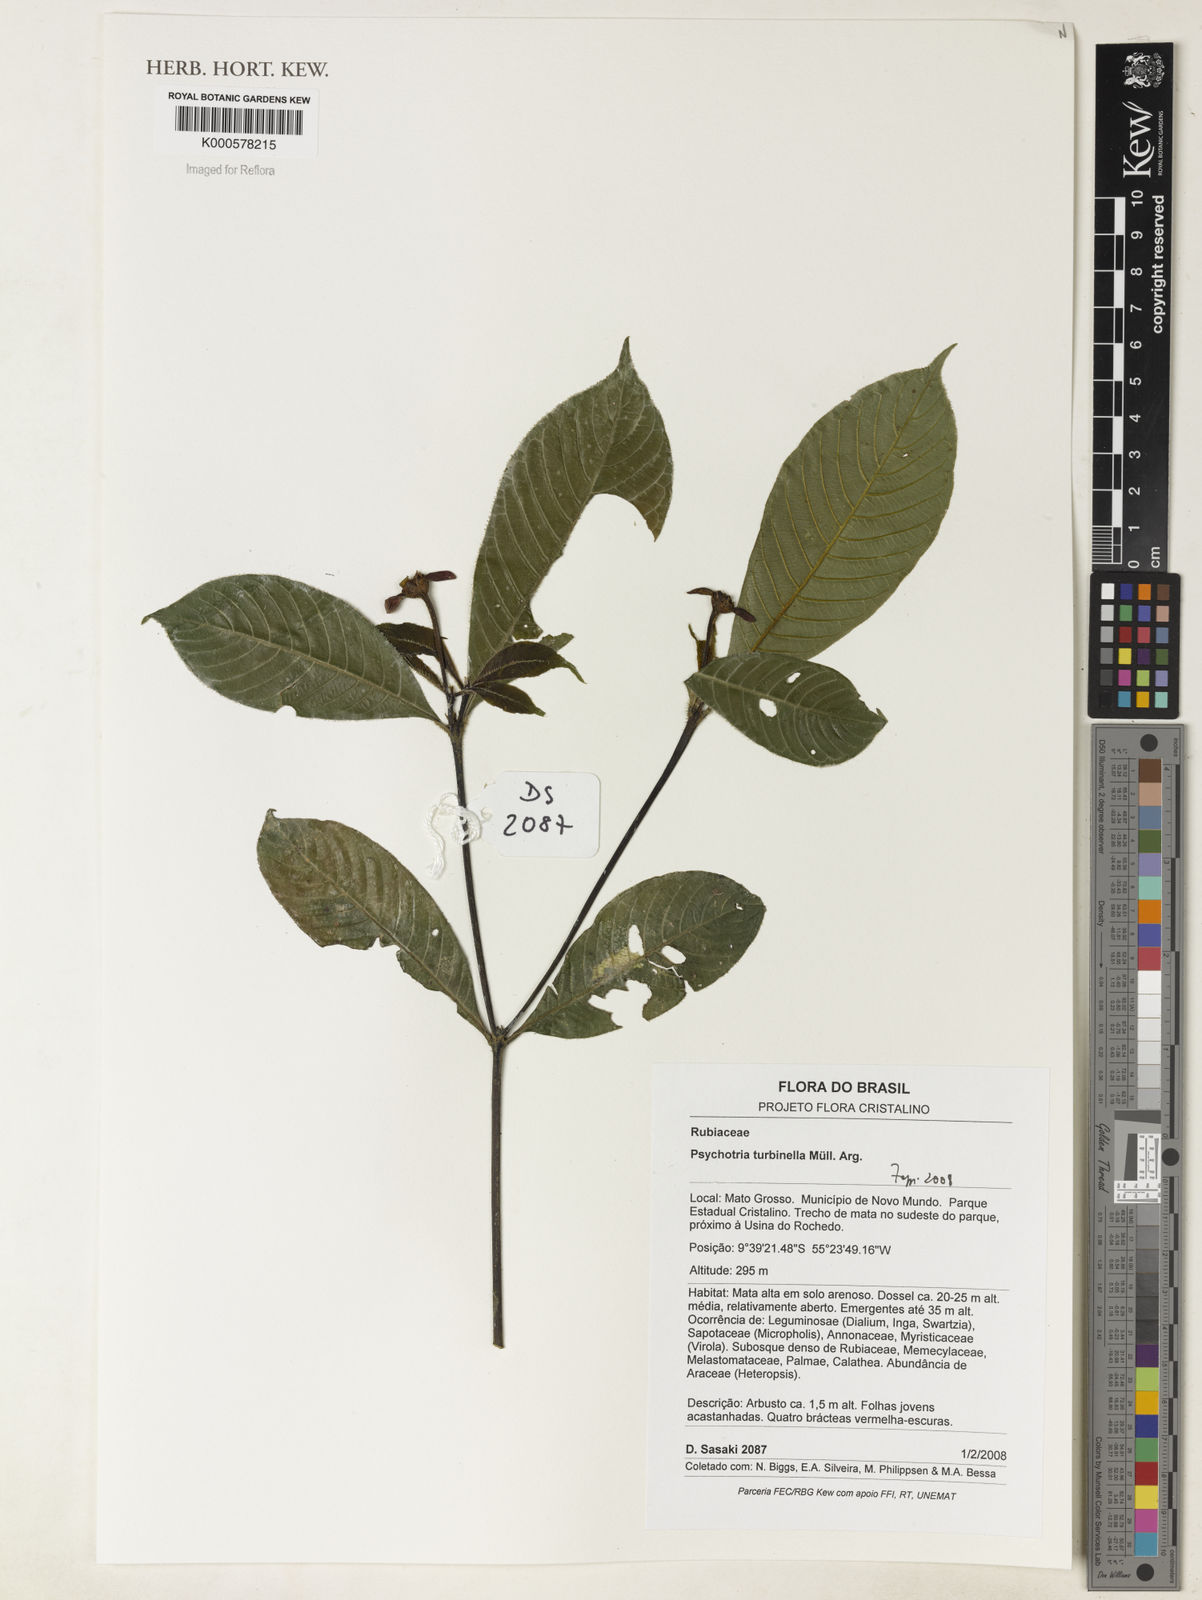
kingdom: Plantae
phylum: Tracheophyta
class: Magnoliopsida
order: Gentianales
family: Rubiaceae
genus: Psychotria
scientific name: Psychotria
